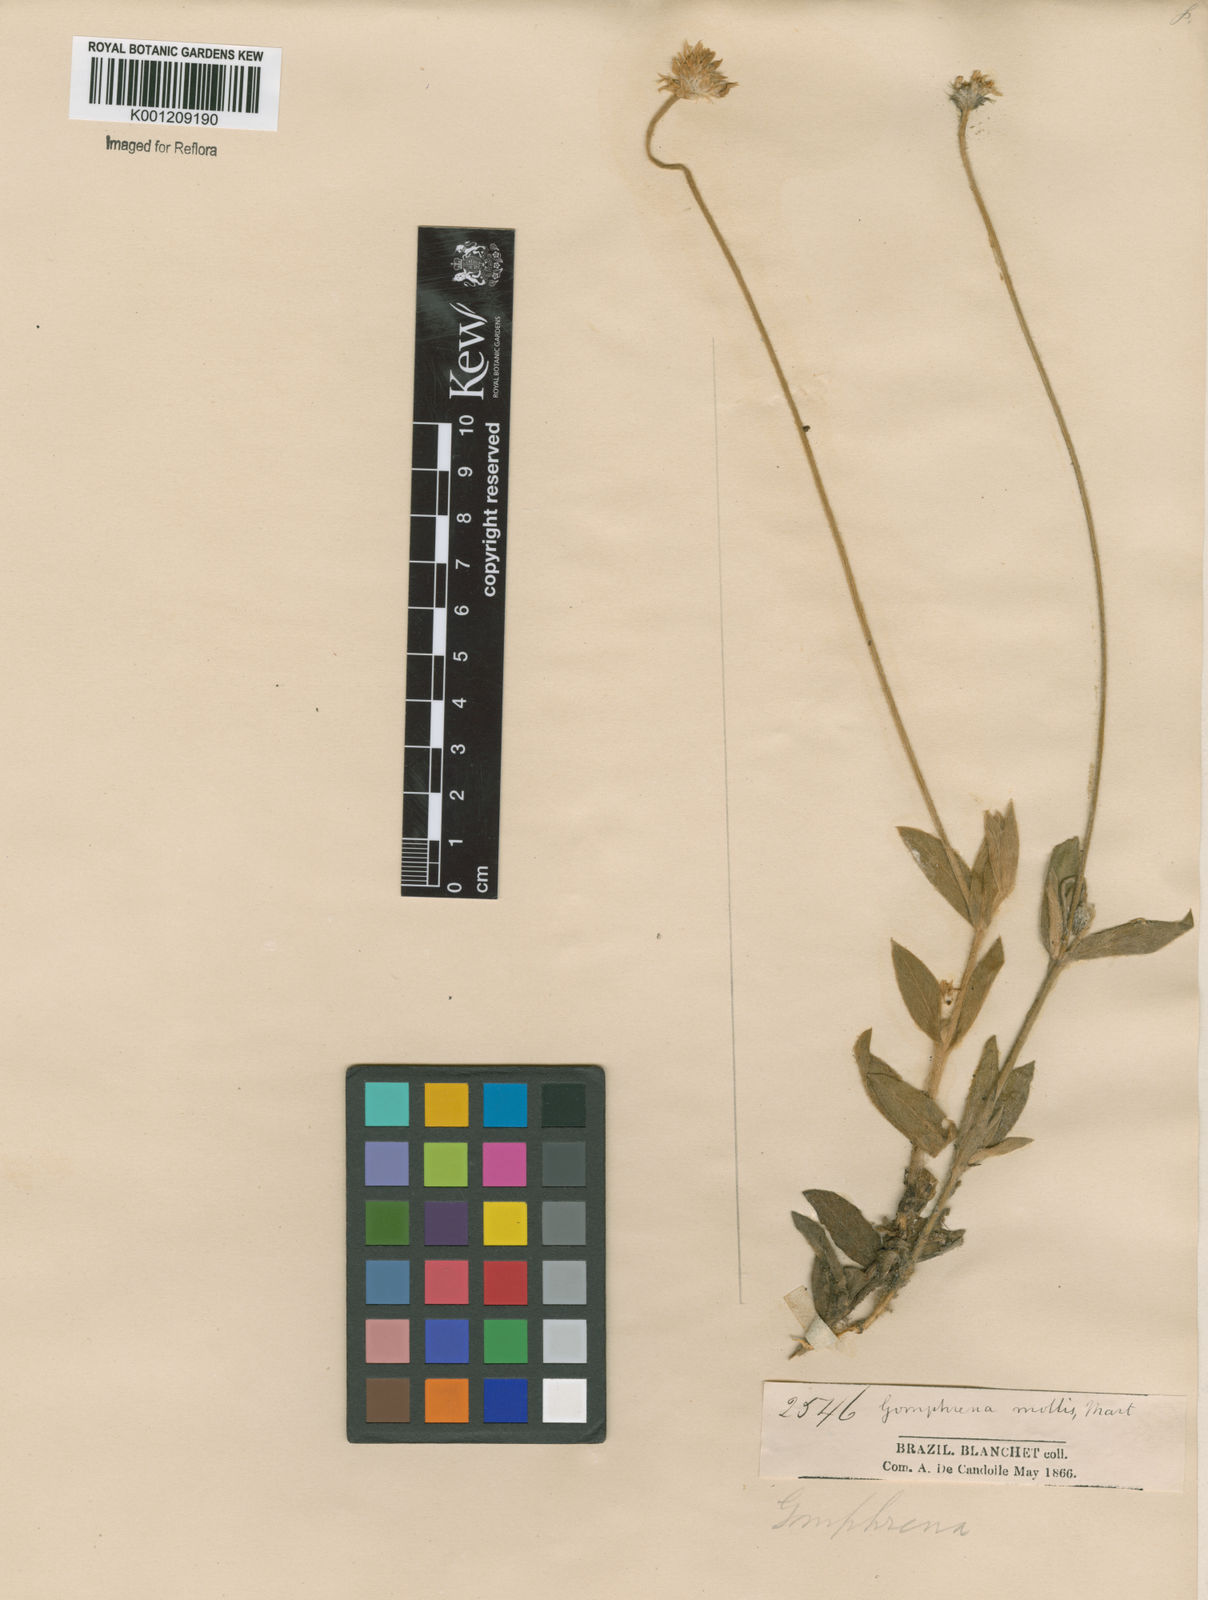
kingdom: Plantae
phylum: Tracheophyta
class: Magnoliopsida
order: Caryophyllales
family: Amaranthaceae
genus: Gomphrena
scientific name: Gomphrena mollis
